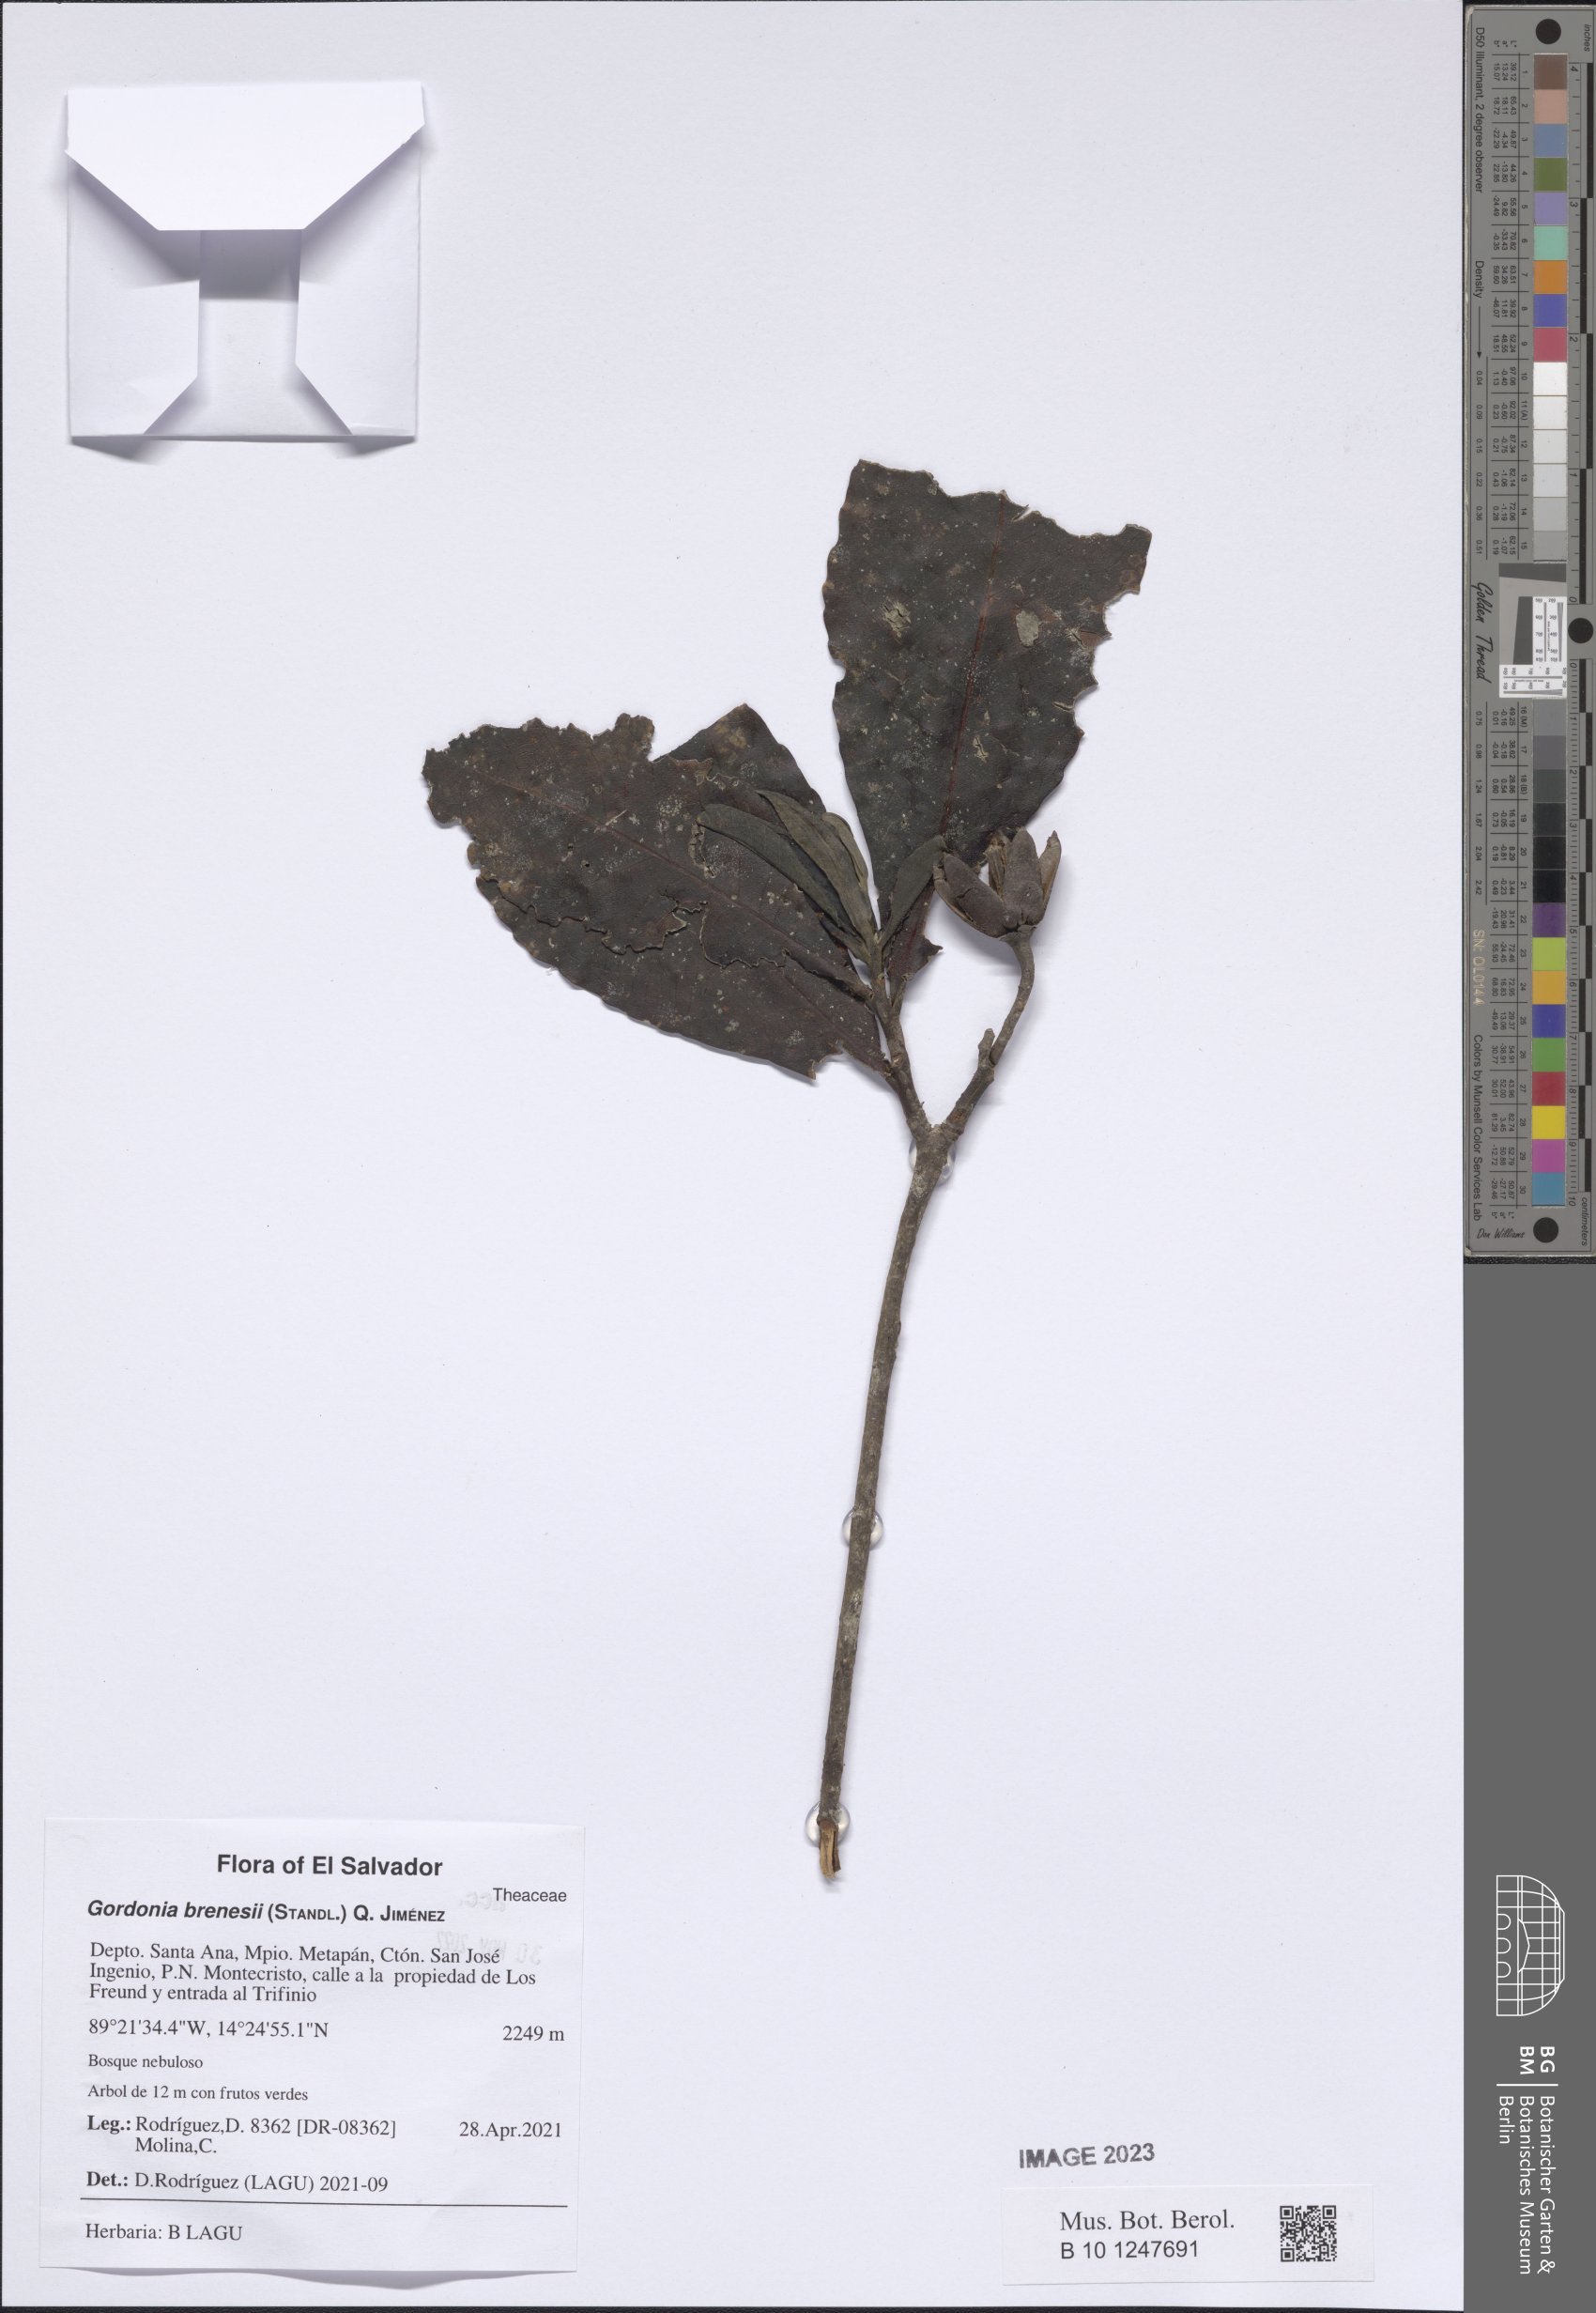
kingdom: Plantae
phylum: Tracheophyta
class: Magnoliopsida
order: Ericales
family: Theaceae
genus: Gordonia
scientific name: Gordonia brenesii
